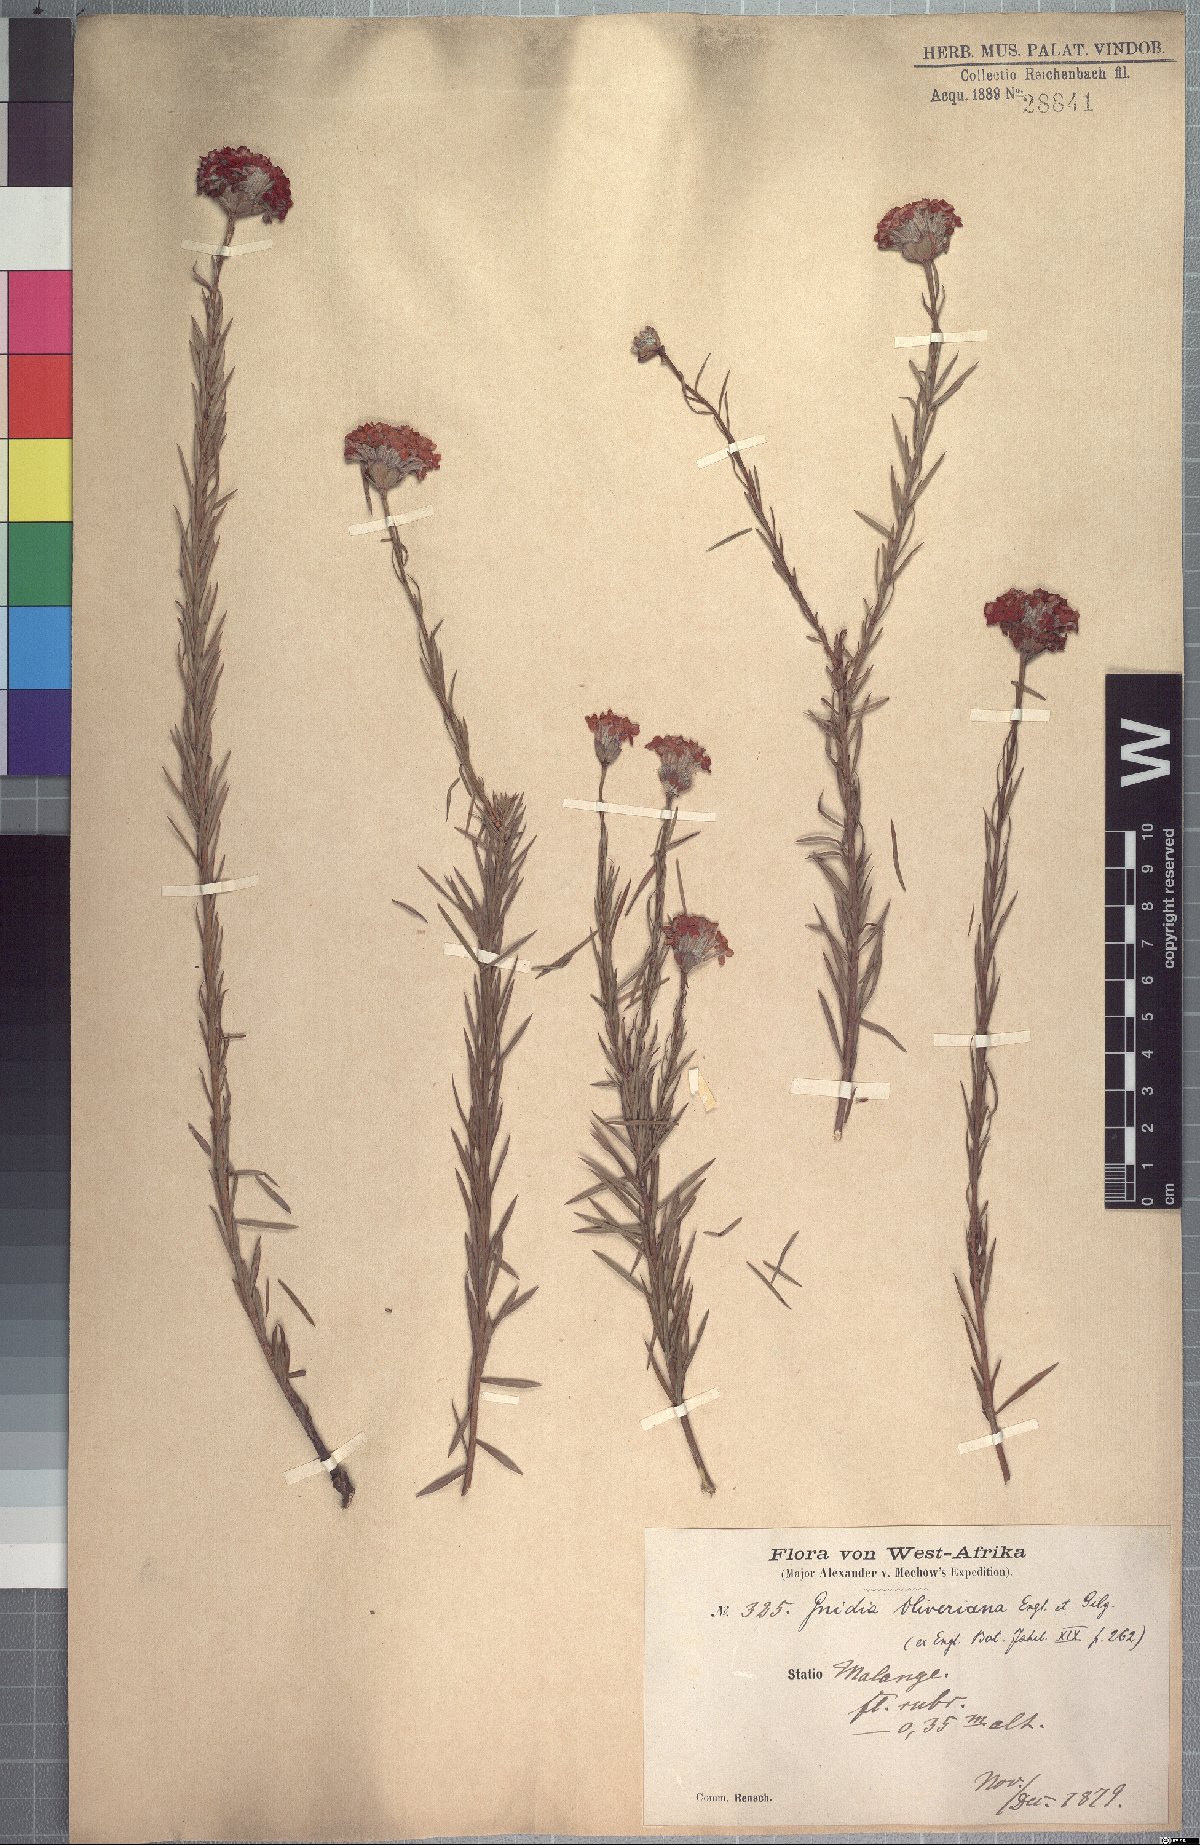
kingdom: Plantae
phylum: Tracheophyta
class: Magnoliopsida
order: Malvales
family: Thymelaeaceae
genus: Gnidia
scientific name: Gnidia oliveriana
